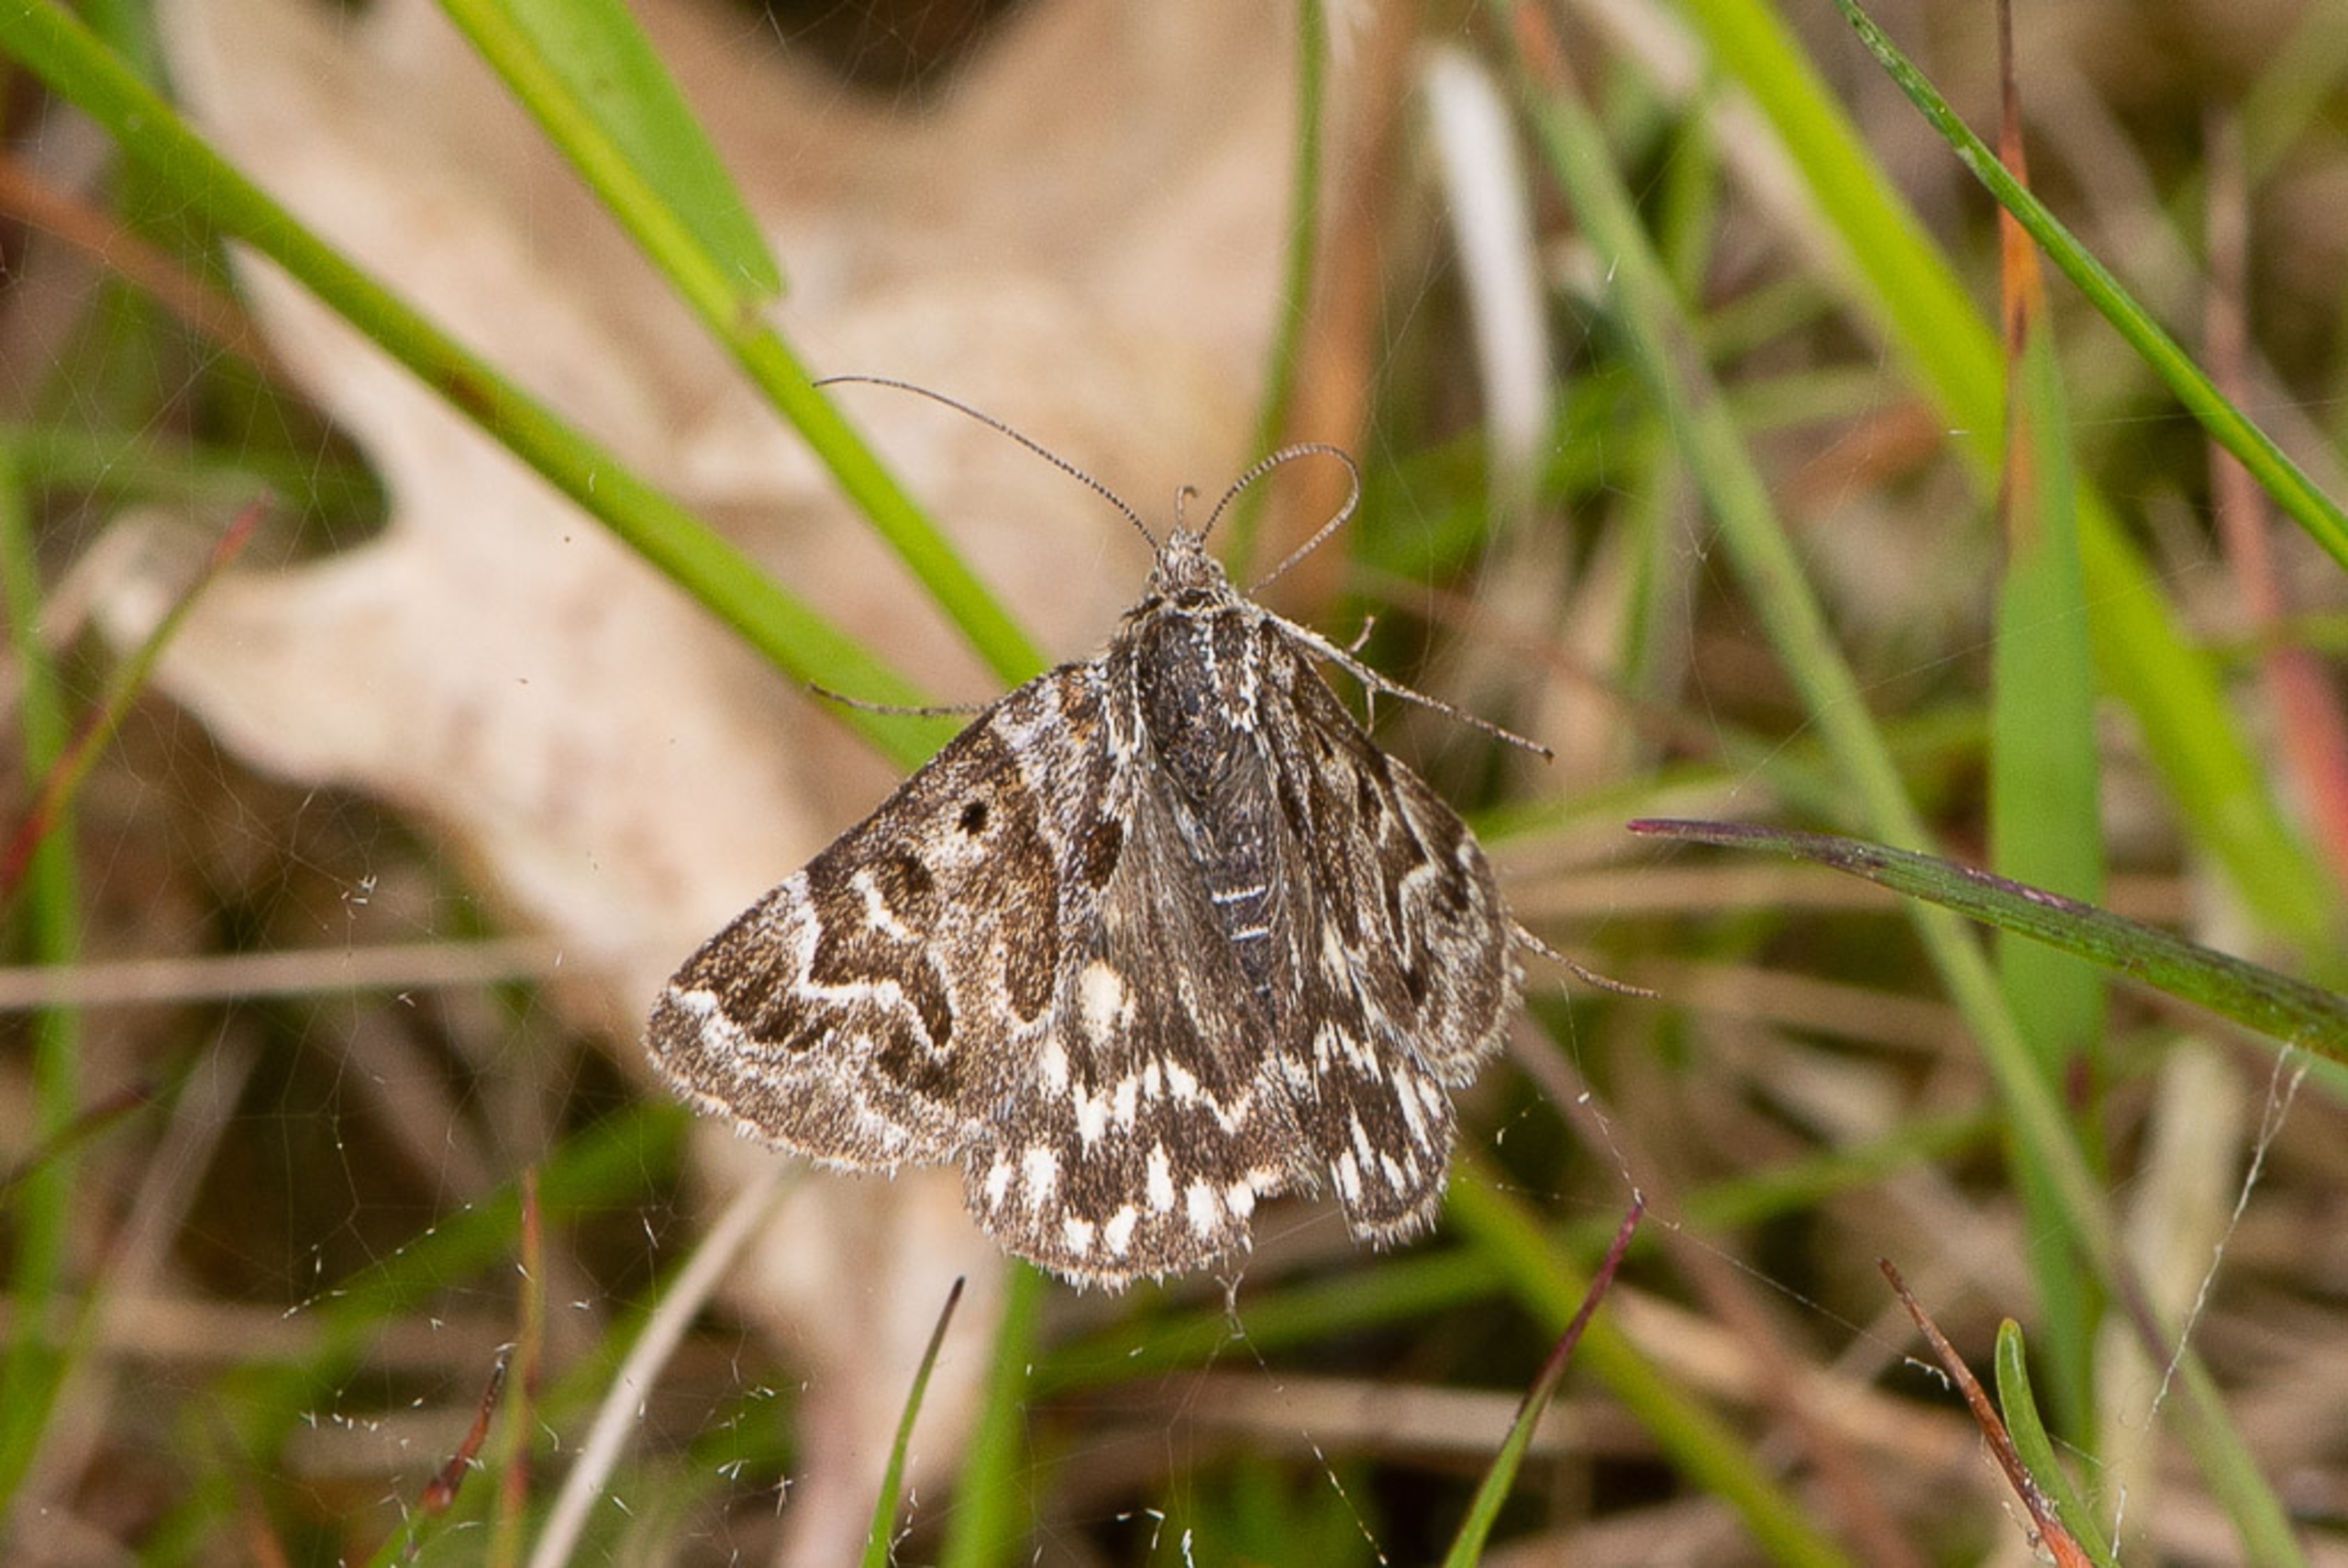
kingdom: Animalia
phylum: Arthropoda
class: Insecta
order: Lepidoptera
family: Erebidae
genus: Callistege
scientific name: Callistege mi
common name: Marmoreret kløverugle
